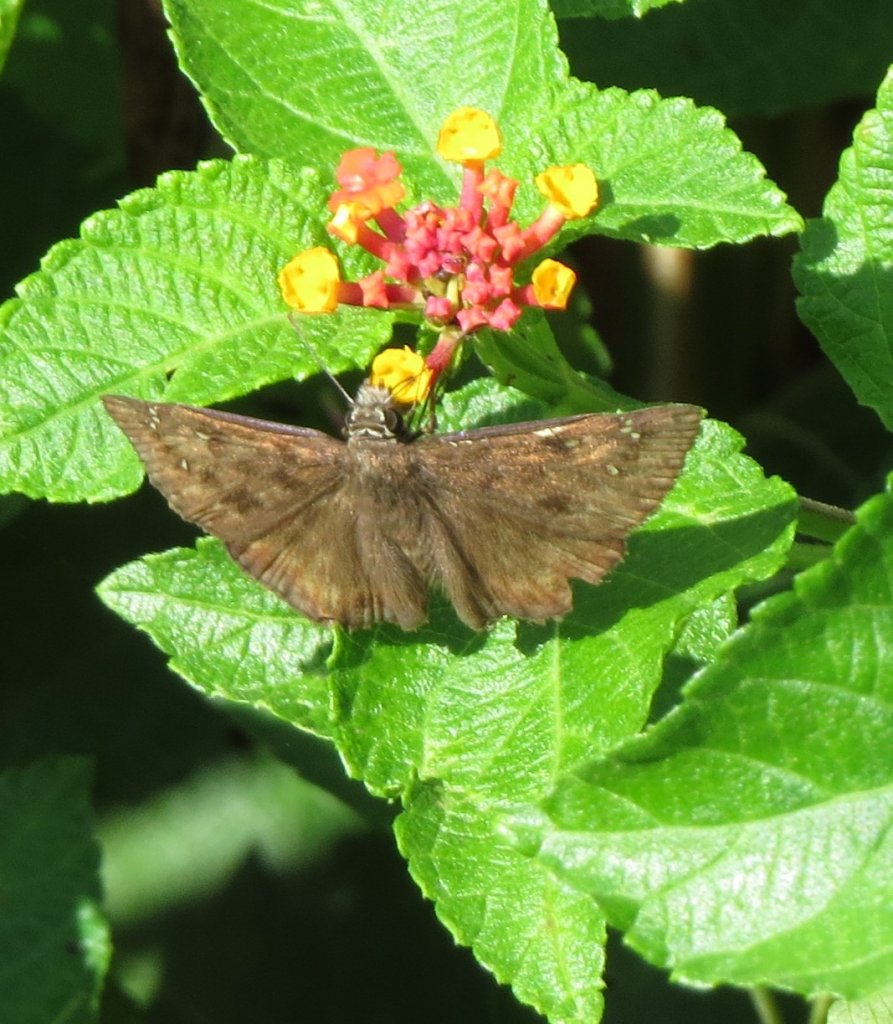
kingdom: Animalia
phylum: Arthropoda
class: Insecta
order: Lepidoptera
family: Hesperiidae
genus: Gesta
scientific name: Gesta
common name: Horace's Duskywing
